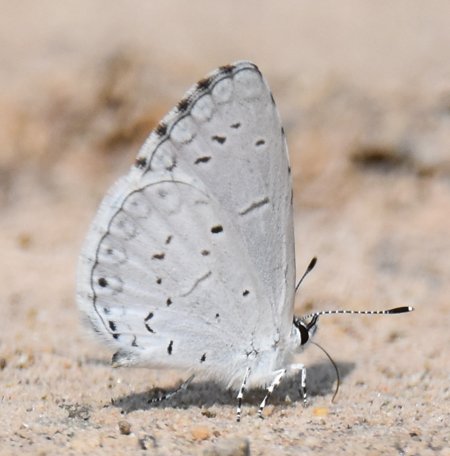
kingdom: Animalia
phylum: Arthropoda
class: Insecta
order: Lepidoptera
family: Lycaenidae
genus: Celastrina
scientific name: Celastrina
